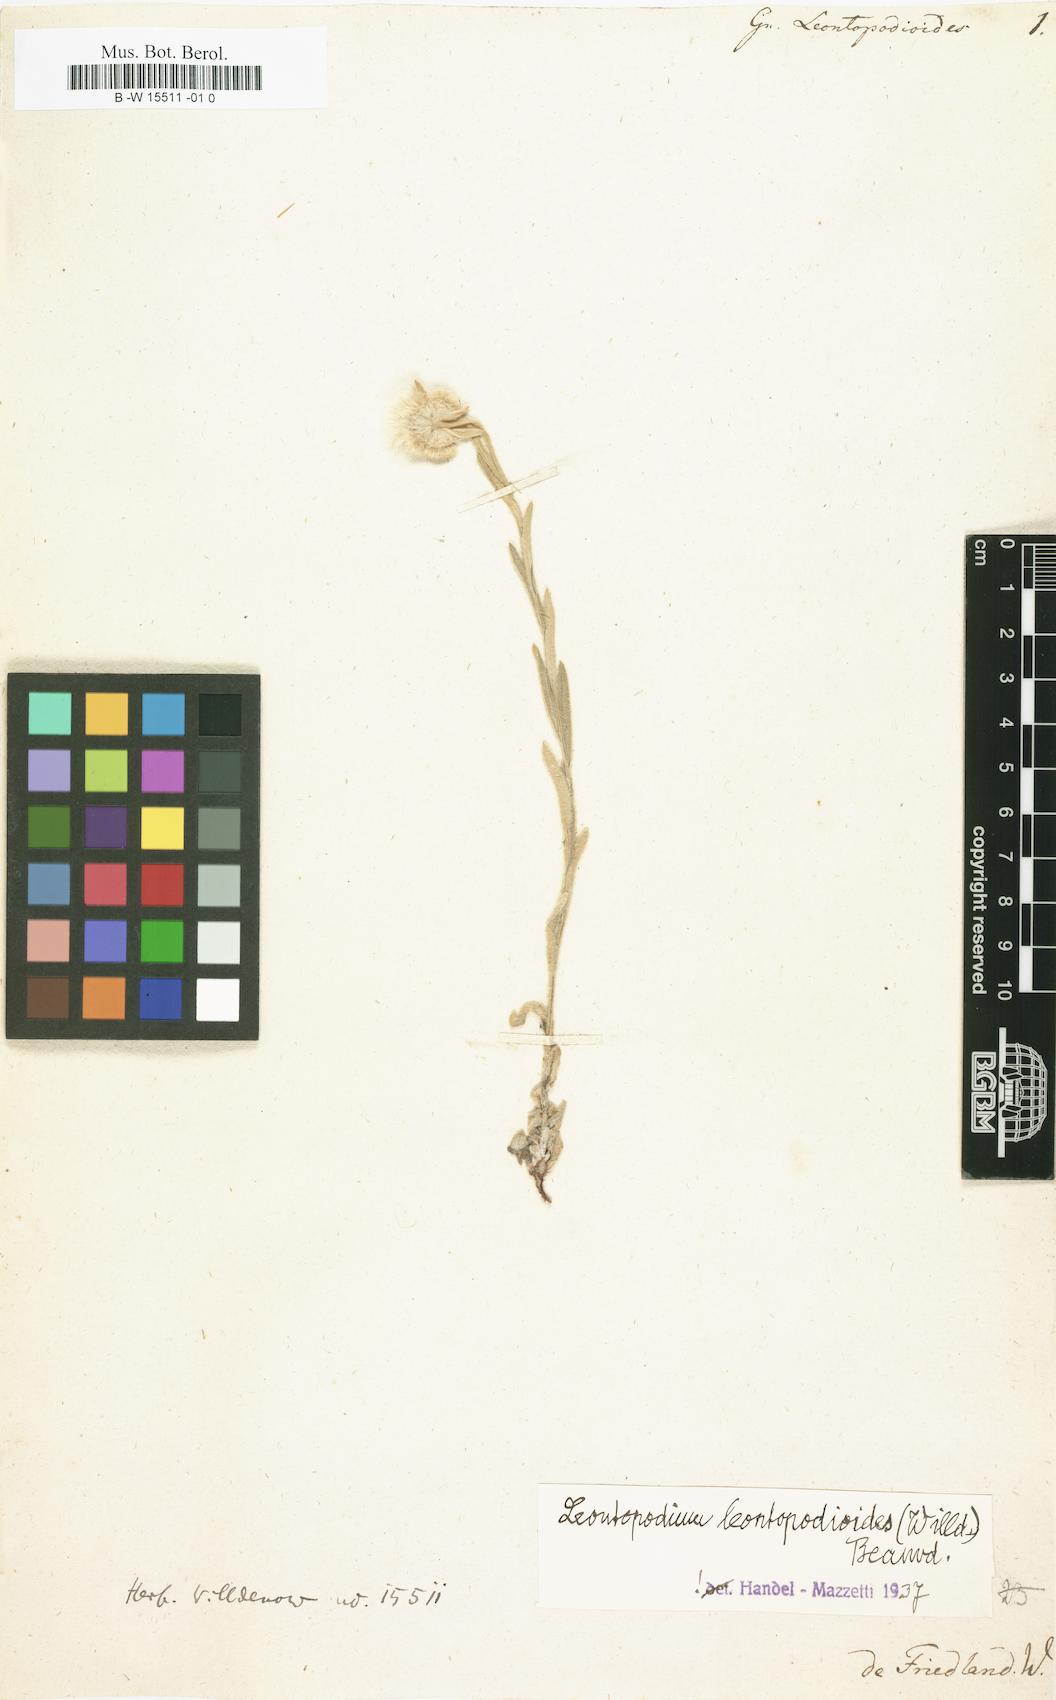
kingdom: Plantae
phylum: Tracheophyta
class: Magnoliopsida
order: Asterales
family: Asteraceae
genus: Gnaphalium
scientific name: Gnaphalium
